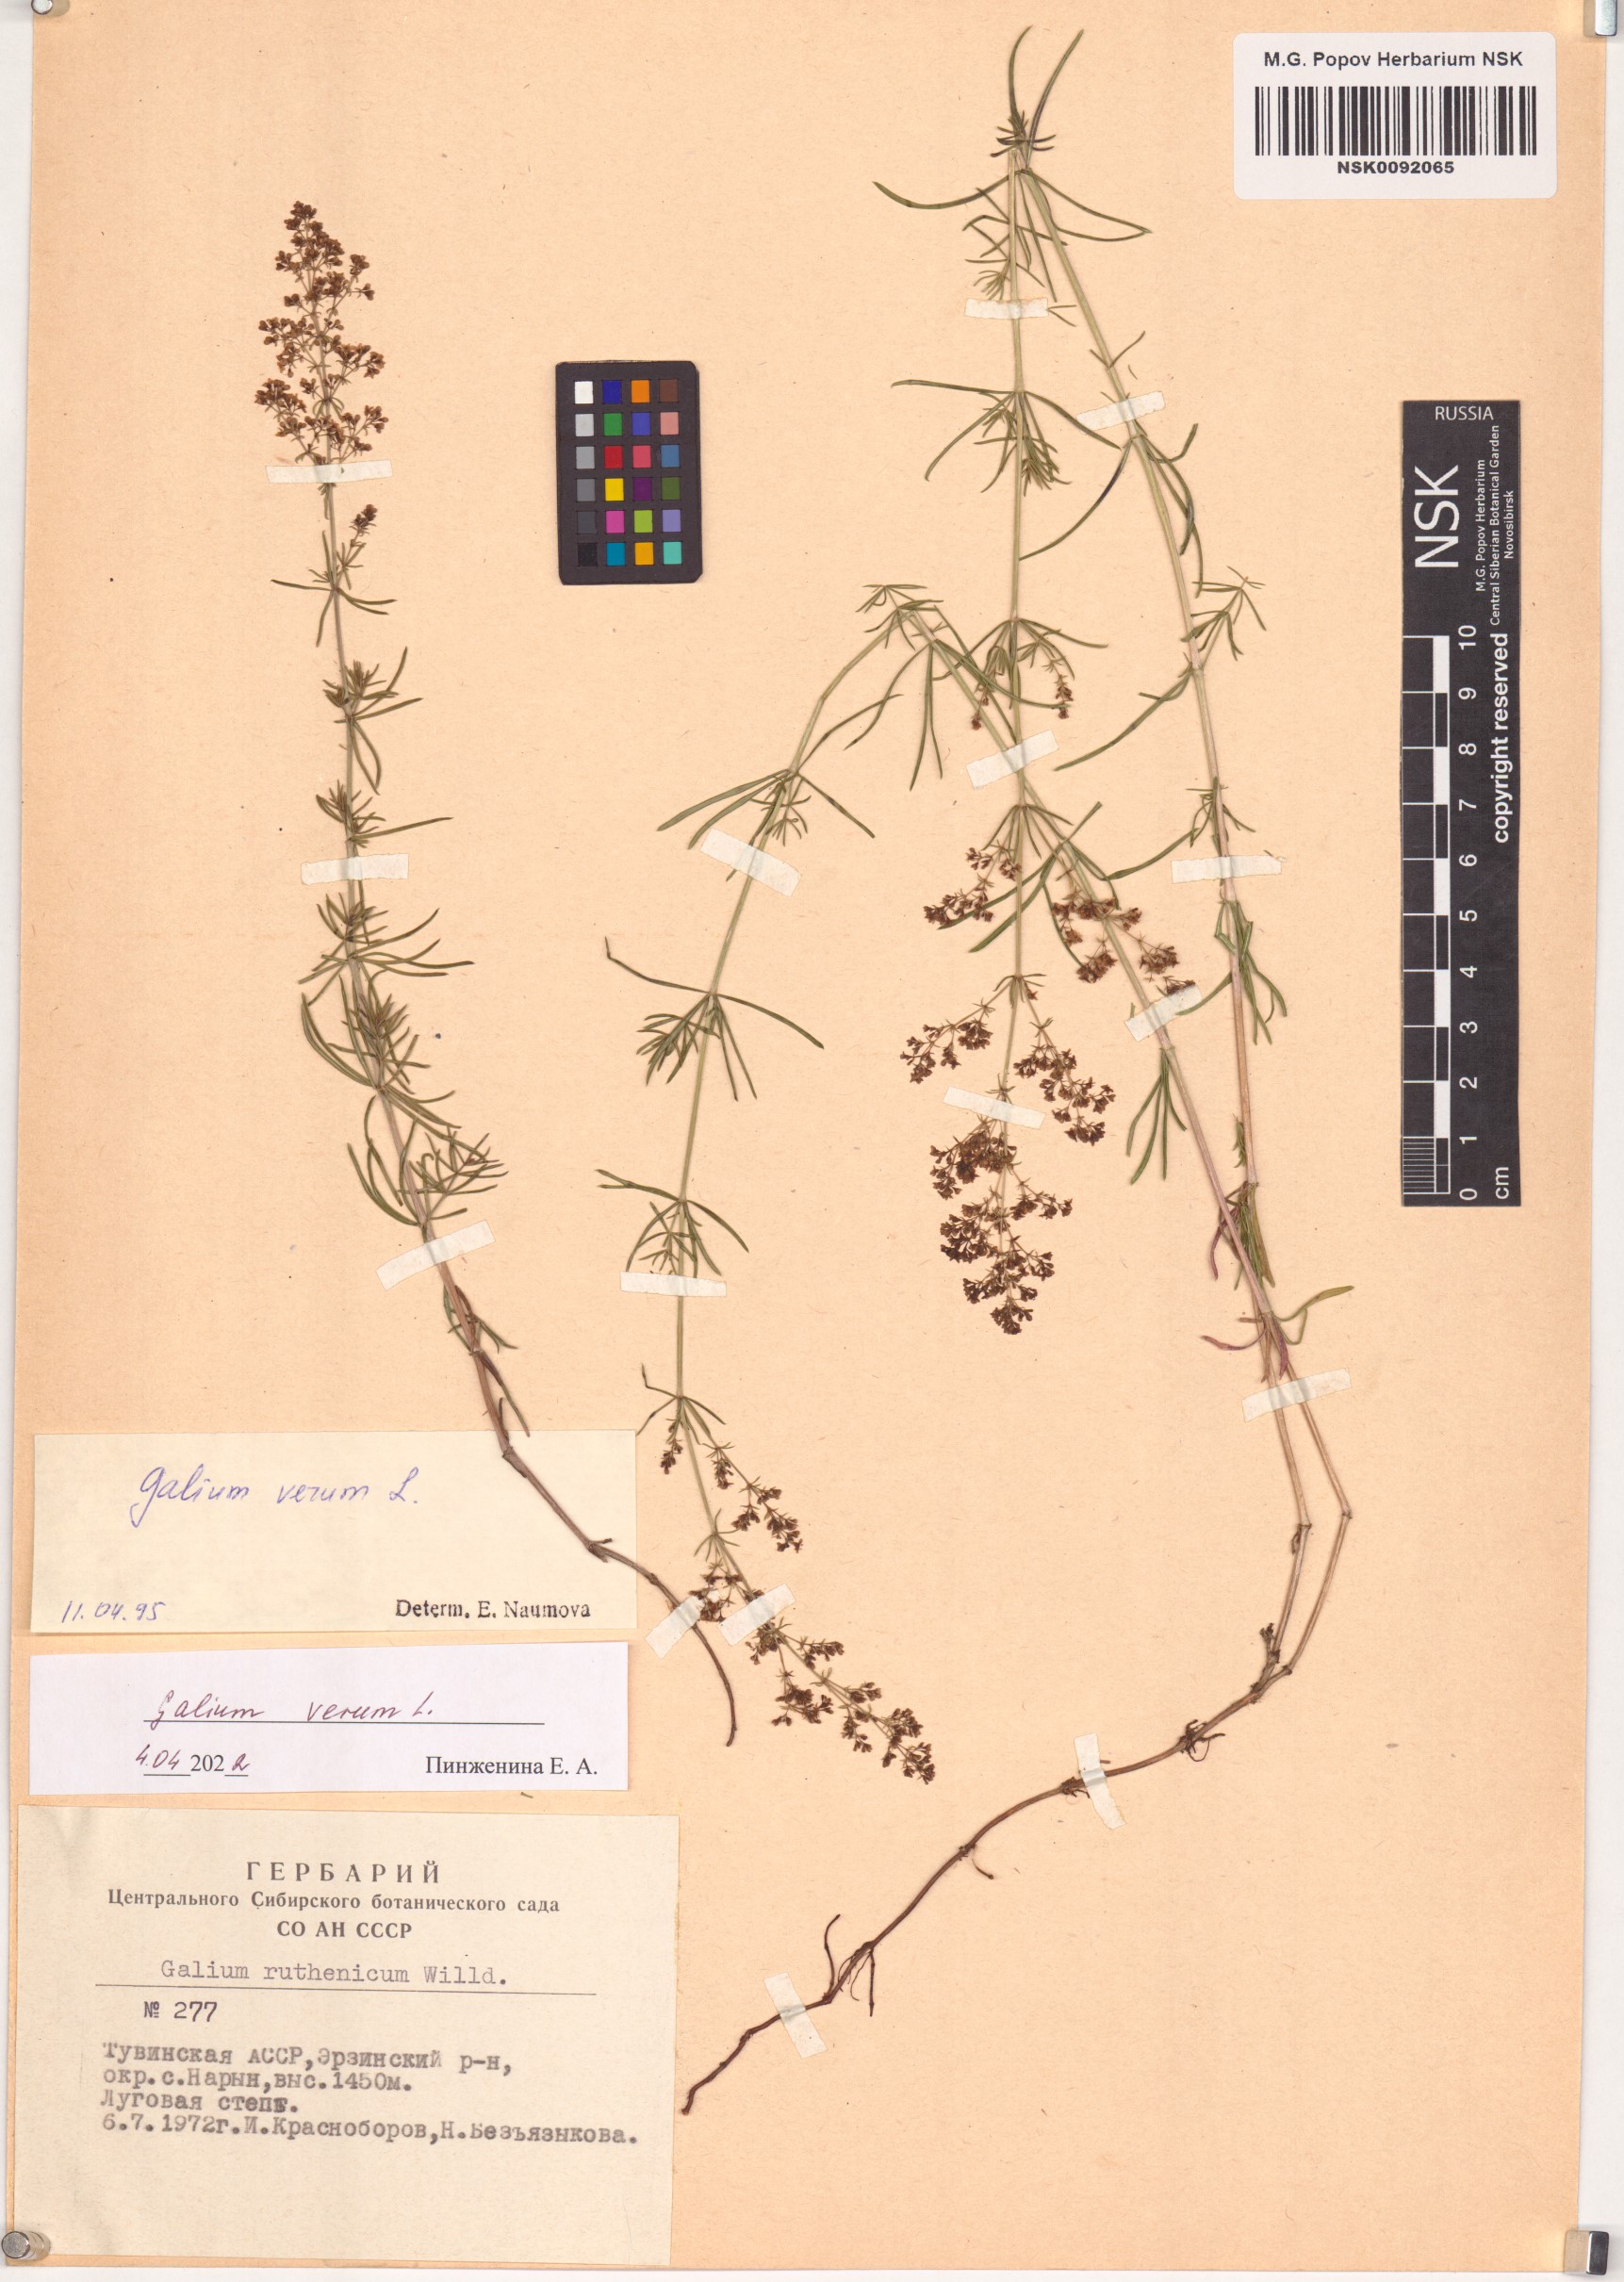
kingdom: Plantae
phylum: Tracheophyta
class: Magnoliopsida
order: Gentianales
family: Rubiaceae
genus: Galium
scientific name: Galium verum
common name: Lady's bedstraw
